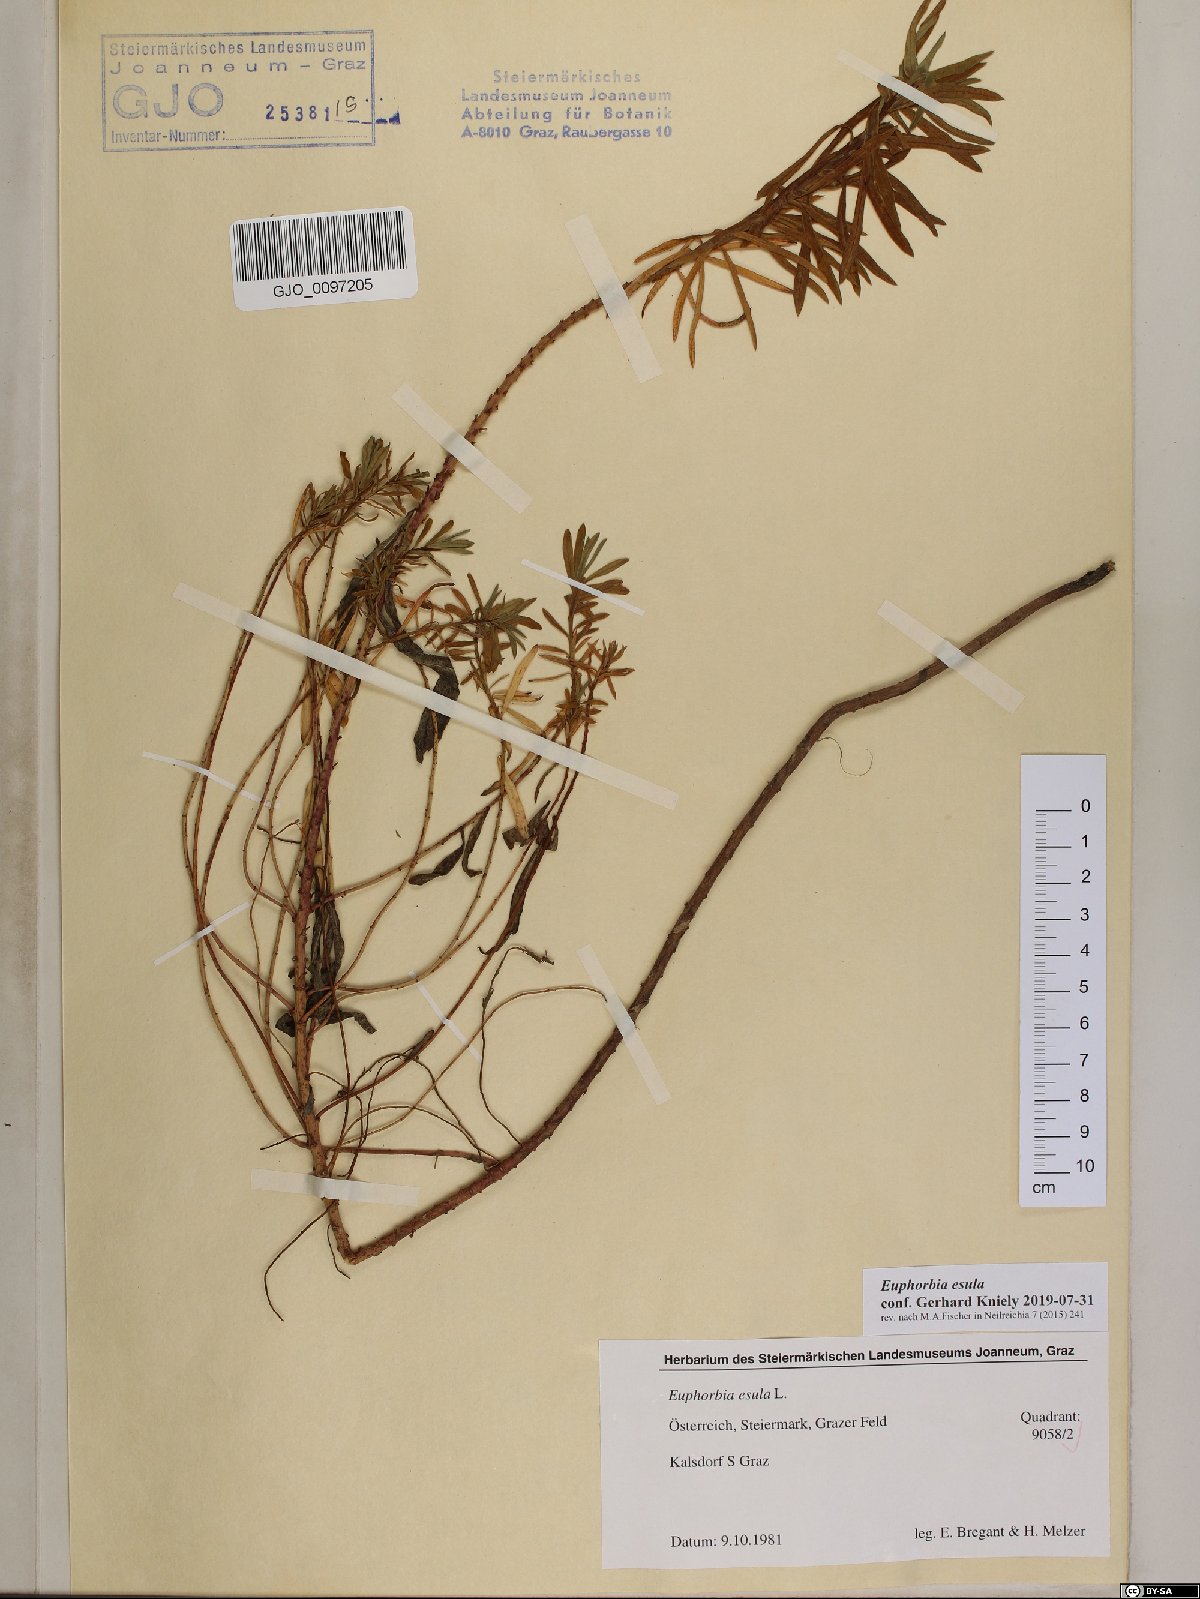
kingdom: Plantae
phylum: Tracheophyta
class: Magnoliopsida
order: Malpighiales
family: Euphorbiaceae
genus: Euphorbia
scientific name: Euphorbia esula
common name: Leafy spurge
